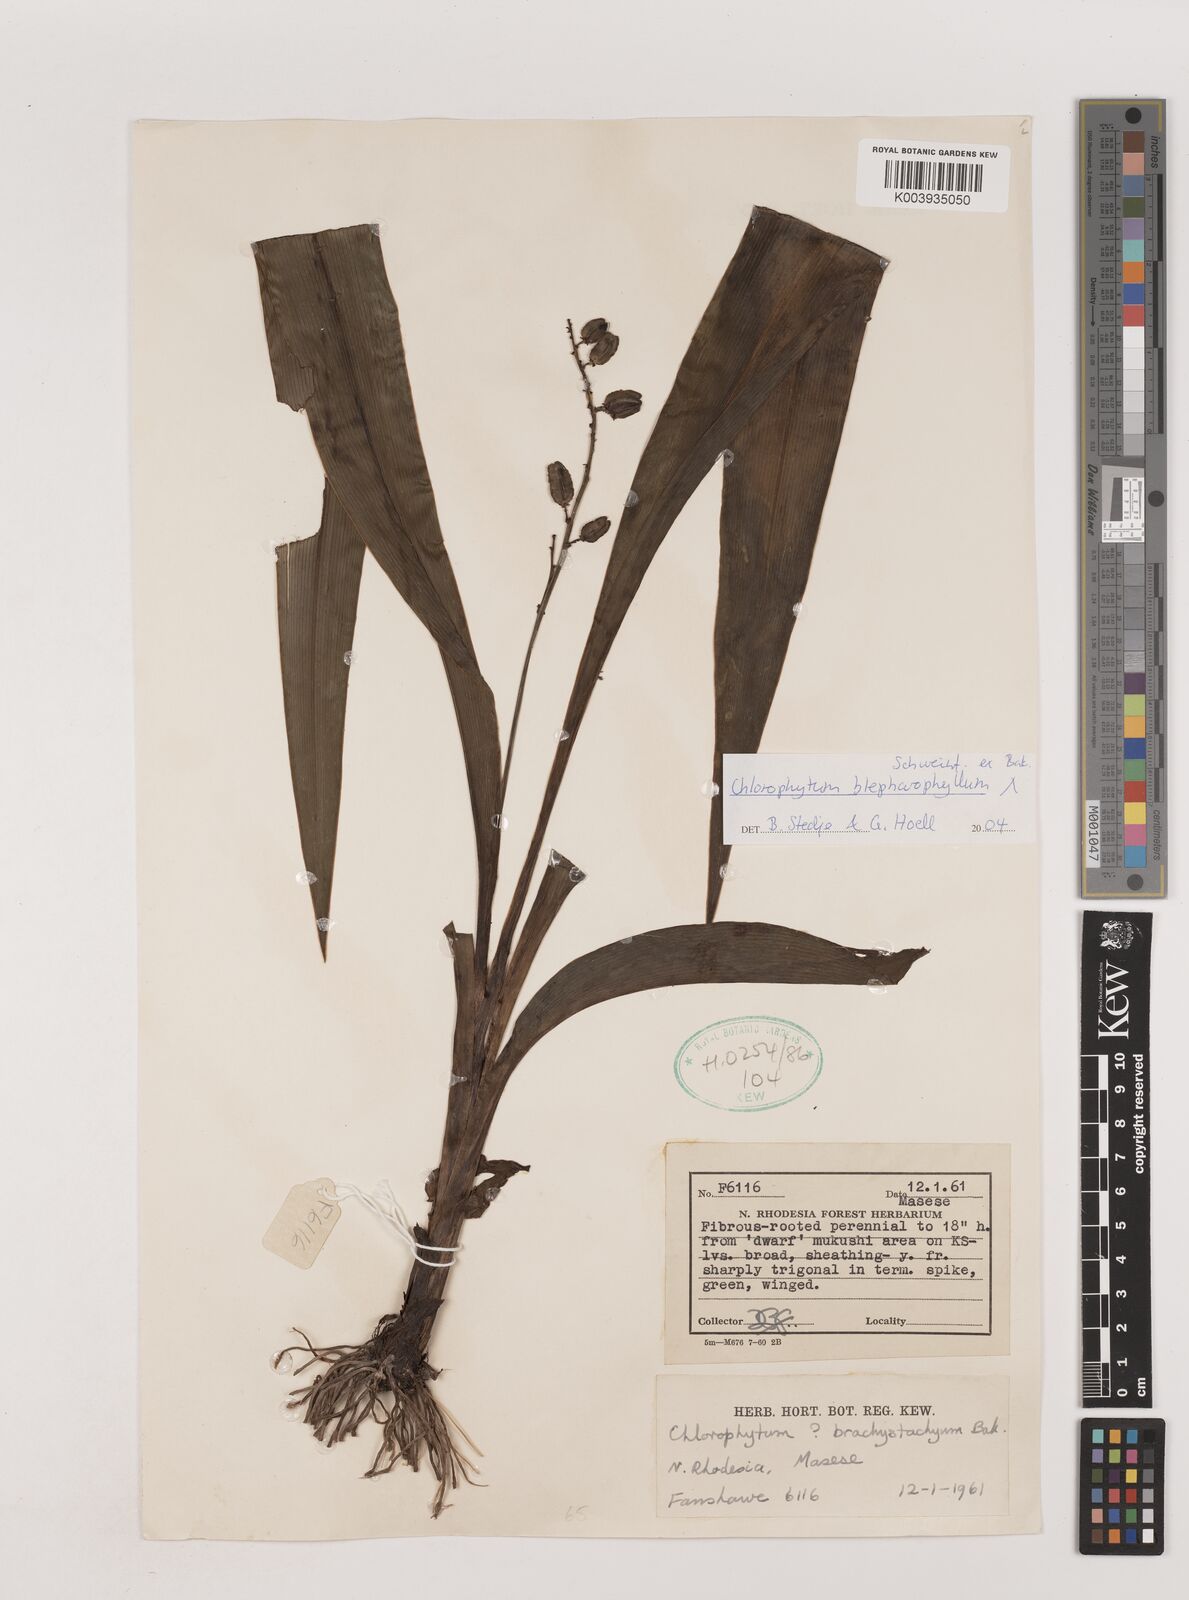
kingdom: Plantae
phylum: Tracheophyta
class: Liliopsida
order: Asparagales
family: Asparagaceae
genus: Chlorophytum
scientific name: Chlorophytum blepharophyllum
